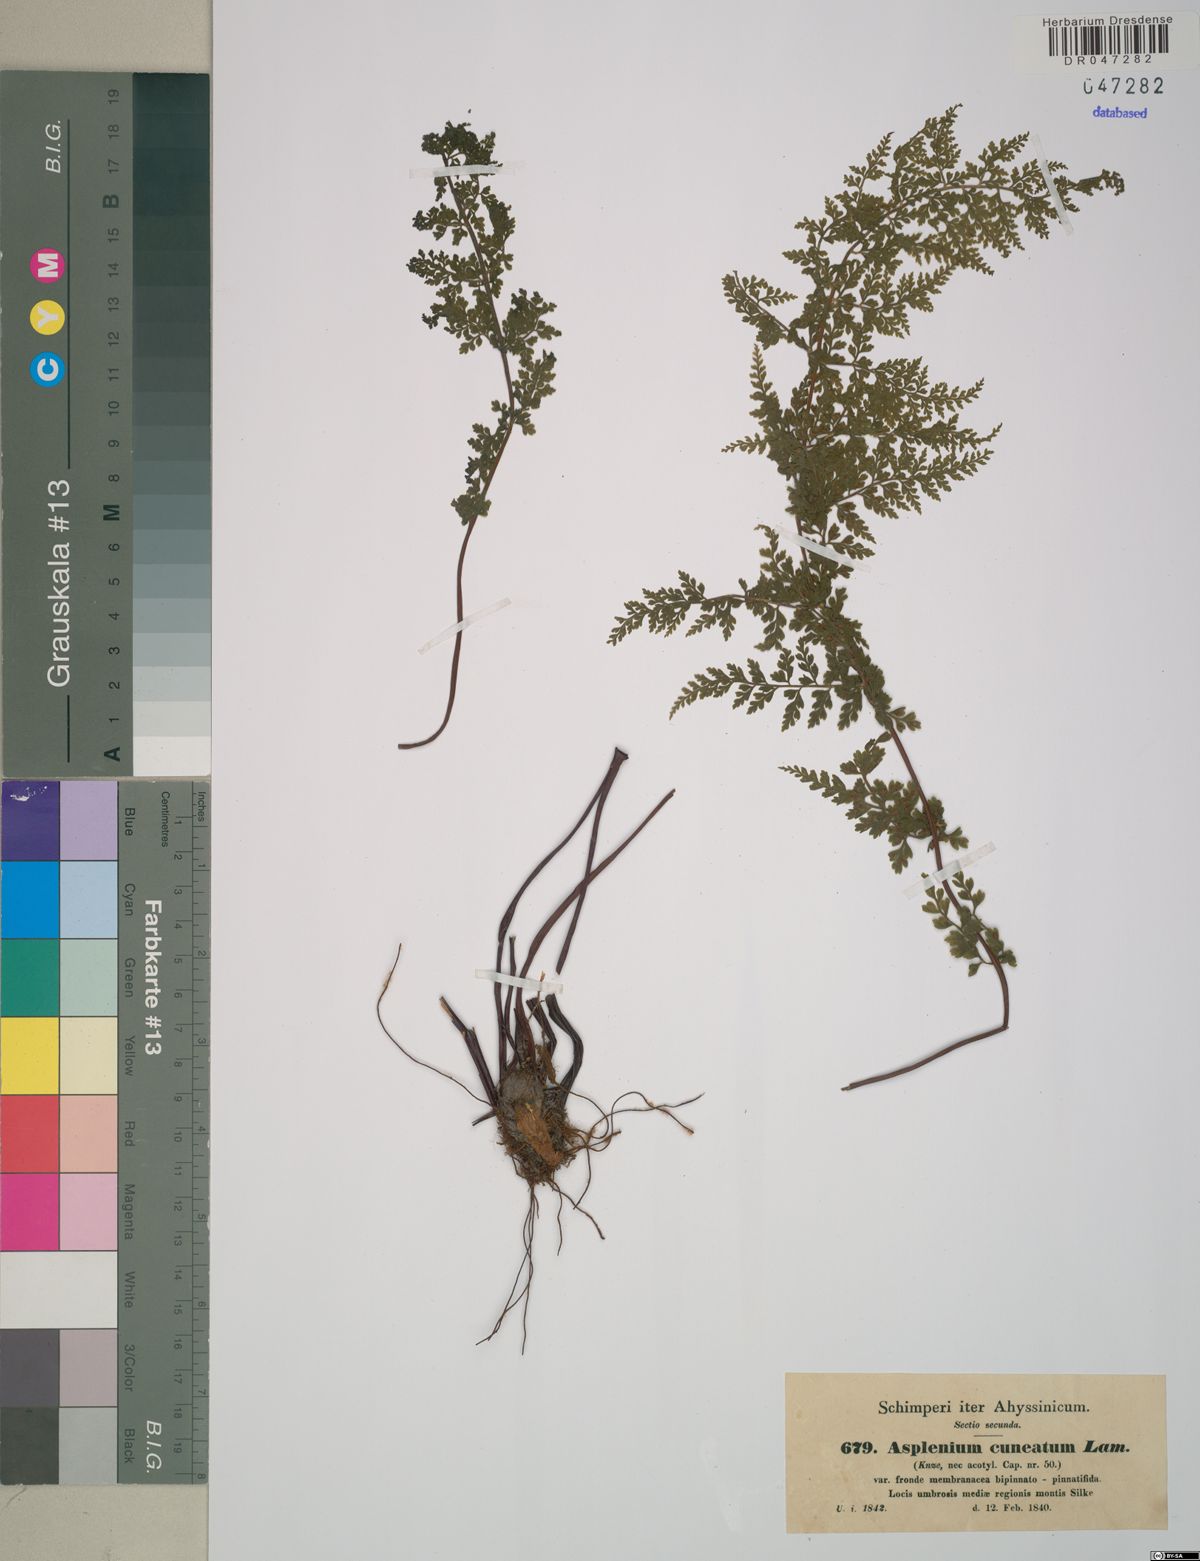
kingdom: Plantae
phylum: Tracheophyta
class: Polypodiopsida
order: Polypodiales
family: Aspleniaceae
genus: Asplenium
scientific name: Asplenium abyssinicum
